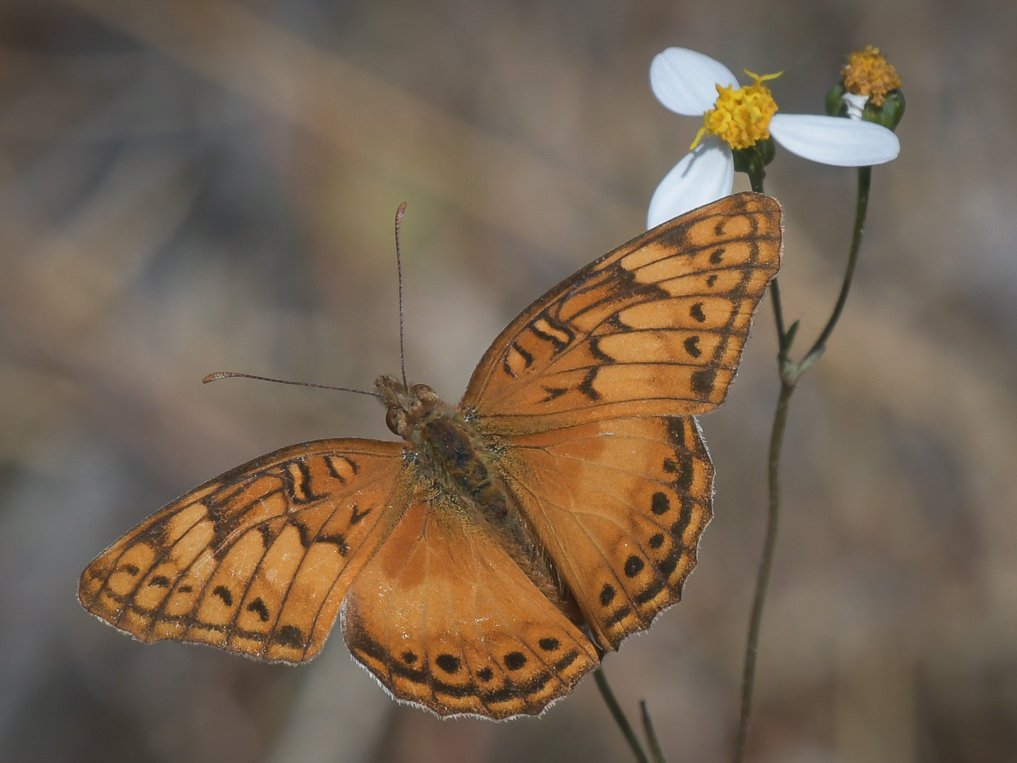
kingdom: Animalia
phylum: Arthropoda
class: Insecta
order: Lepidoptera
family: Nymphalidae
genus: Euptoieta
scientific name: Euptoieta hegesia
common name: Mexican Fritillary
